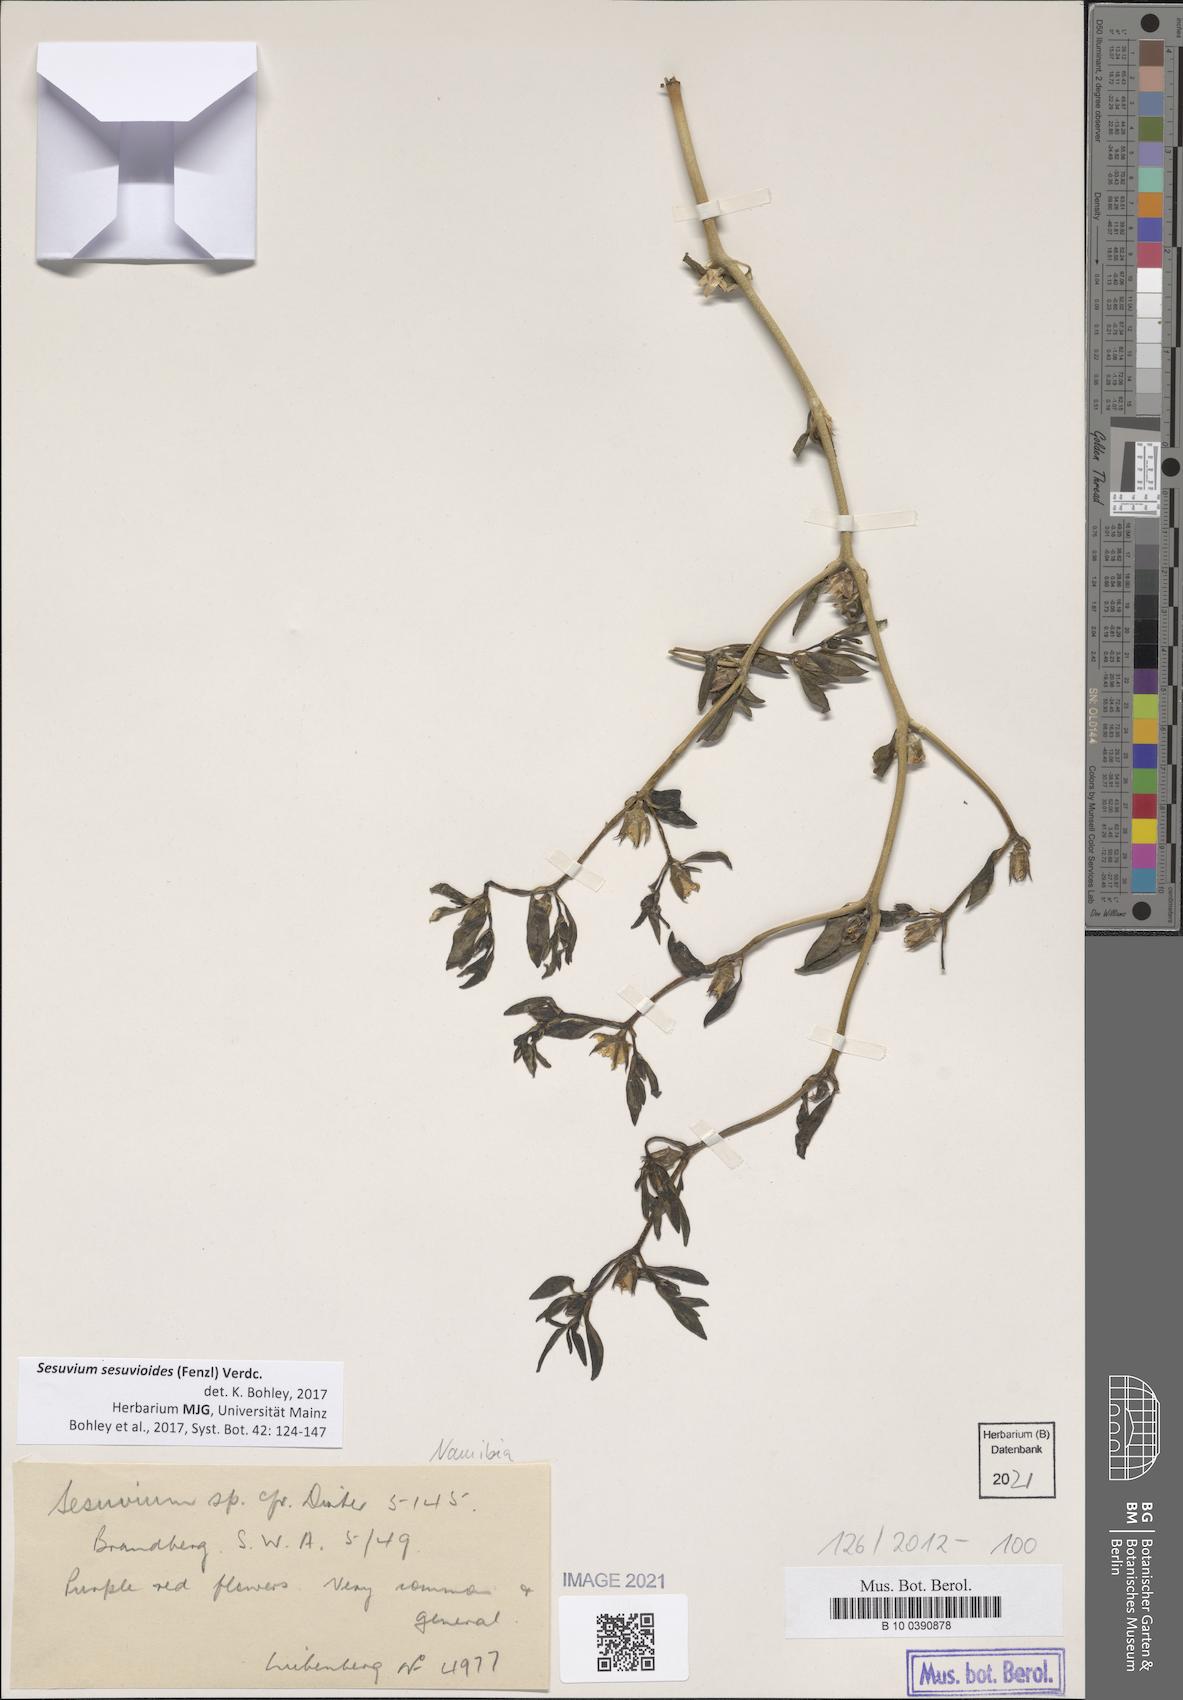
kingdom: Plantae
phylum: Tracheophyta
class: Magnoliopsida
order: Caryophyllales
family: Aizoaceae
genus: Sesuvium
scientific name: Sesuvium sesuvioides
